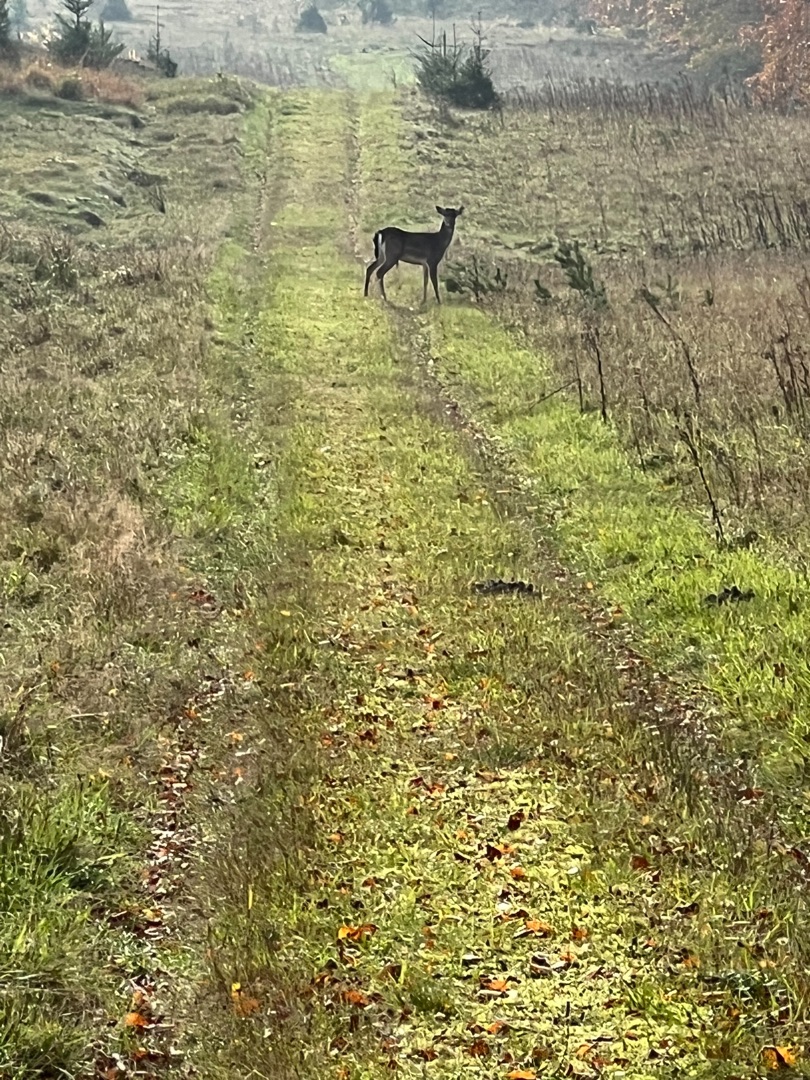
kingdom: Animalia
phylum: Chordata
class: Mammalia
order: Artiodactyla
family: Cervidae
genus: Dama
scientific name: Dama dama
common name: Dådyr
